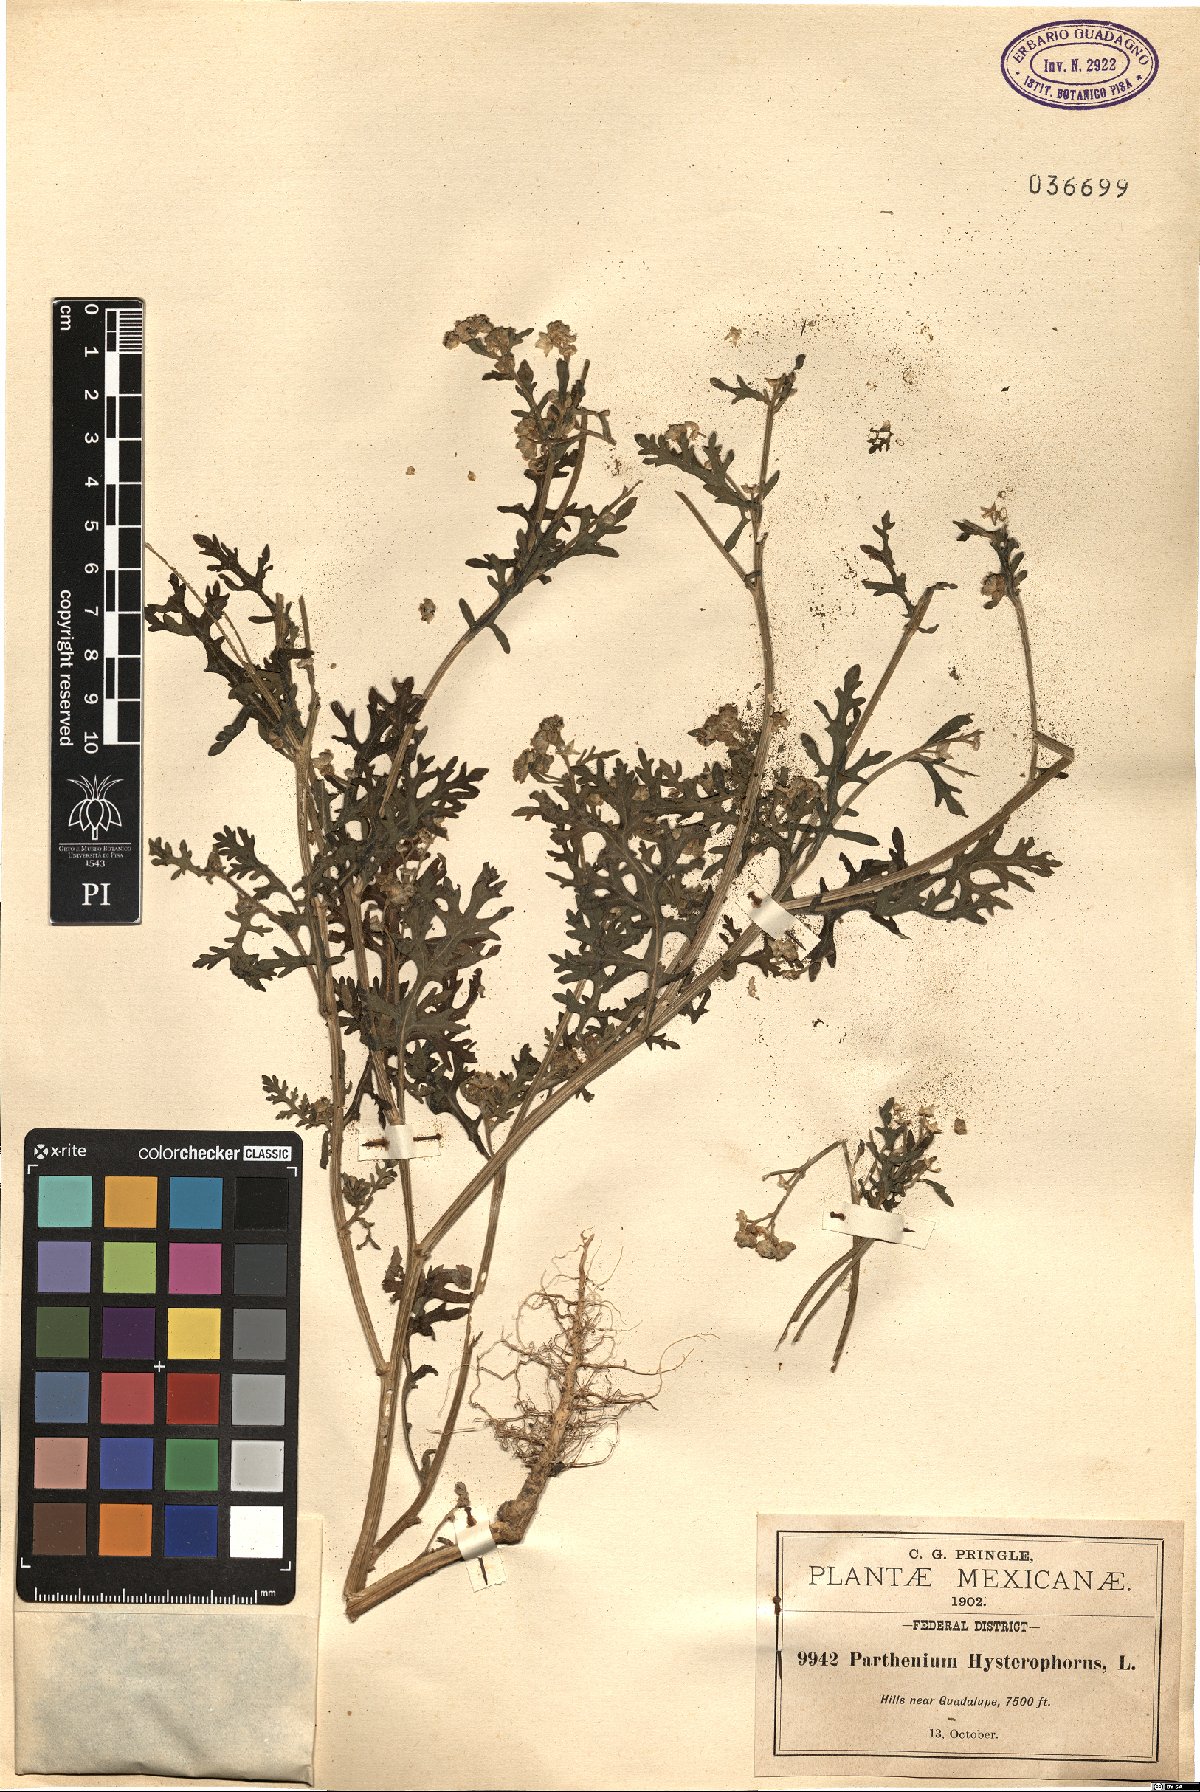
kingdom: Plantae
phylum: Tracheophyta
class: Magnoliopsida
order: Asterales
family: Asteraceae
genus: Parthenium
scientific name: Parthenium hysterophorus
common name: Santa maria feverfew
